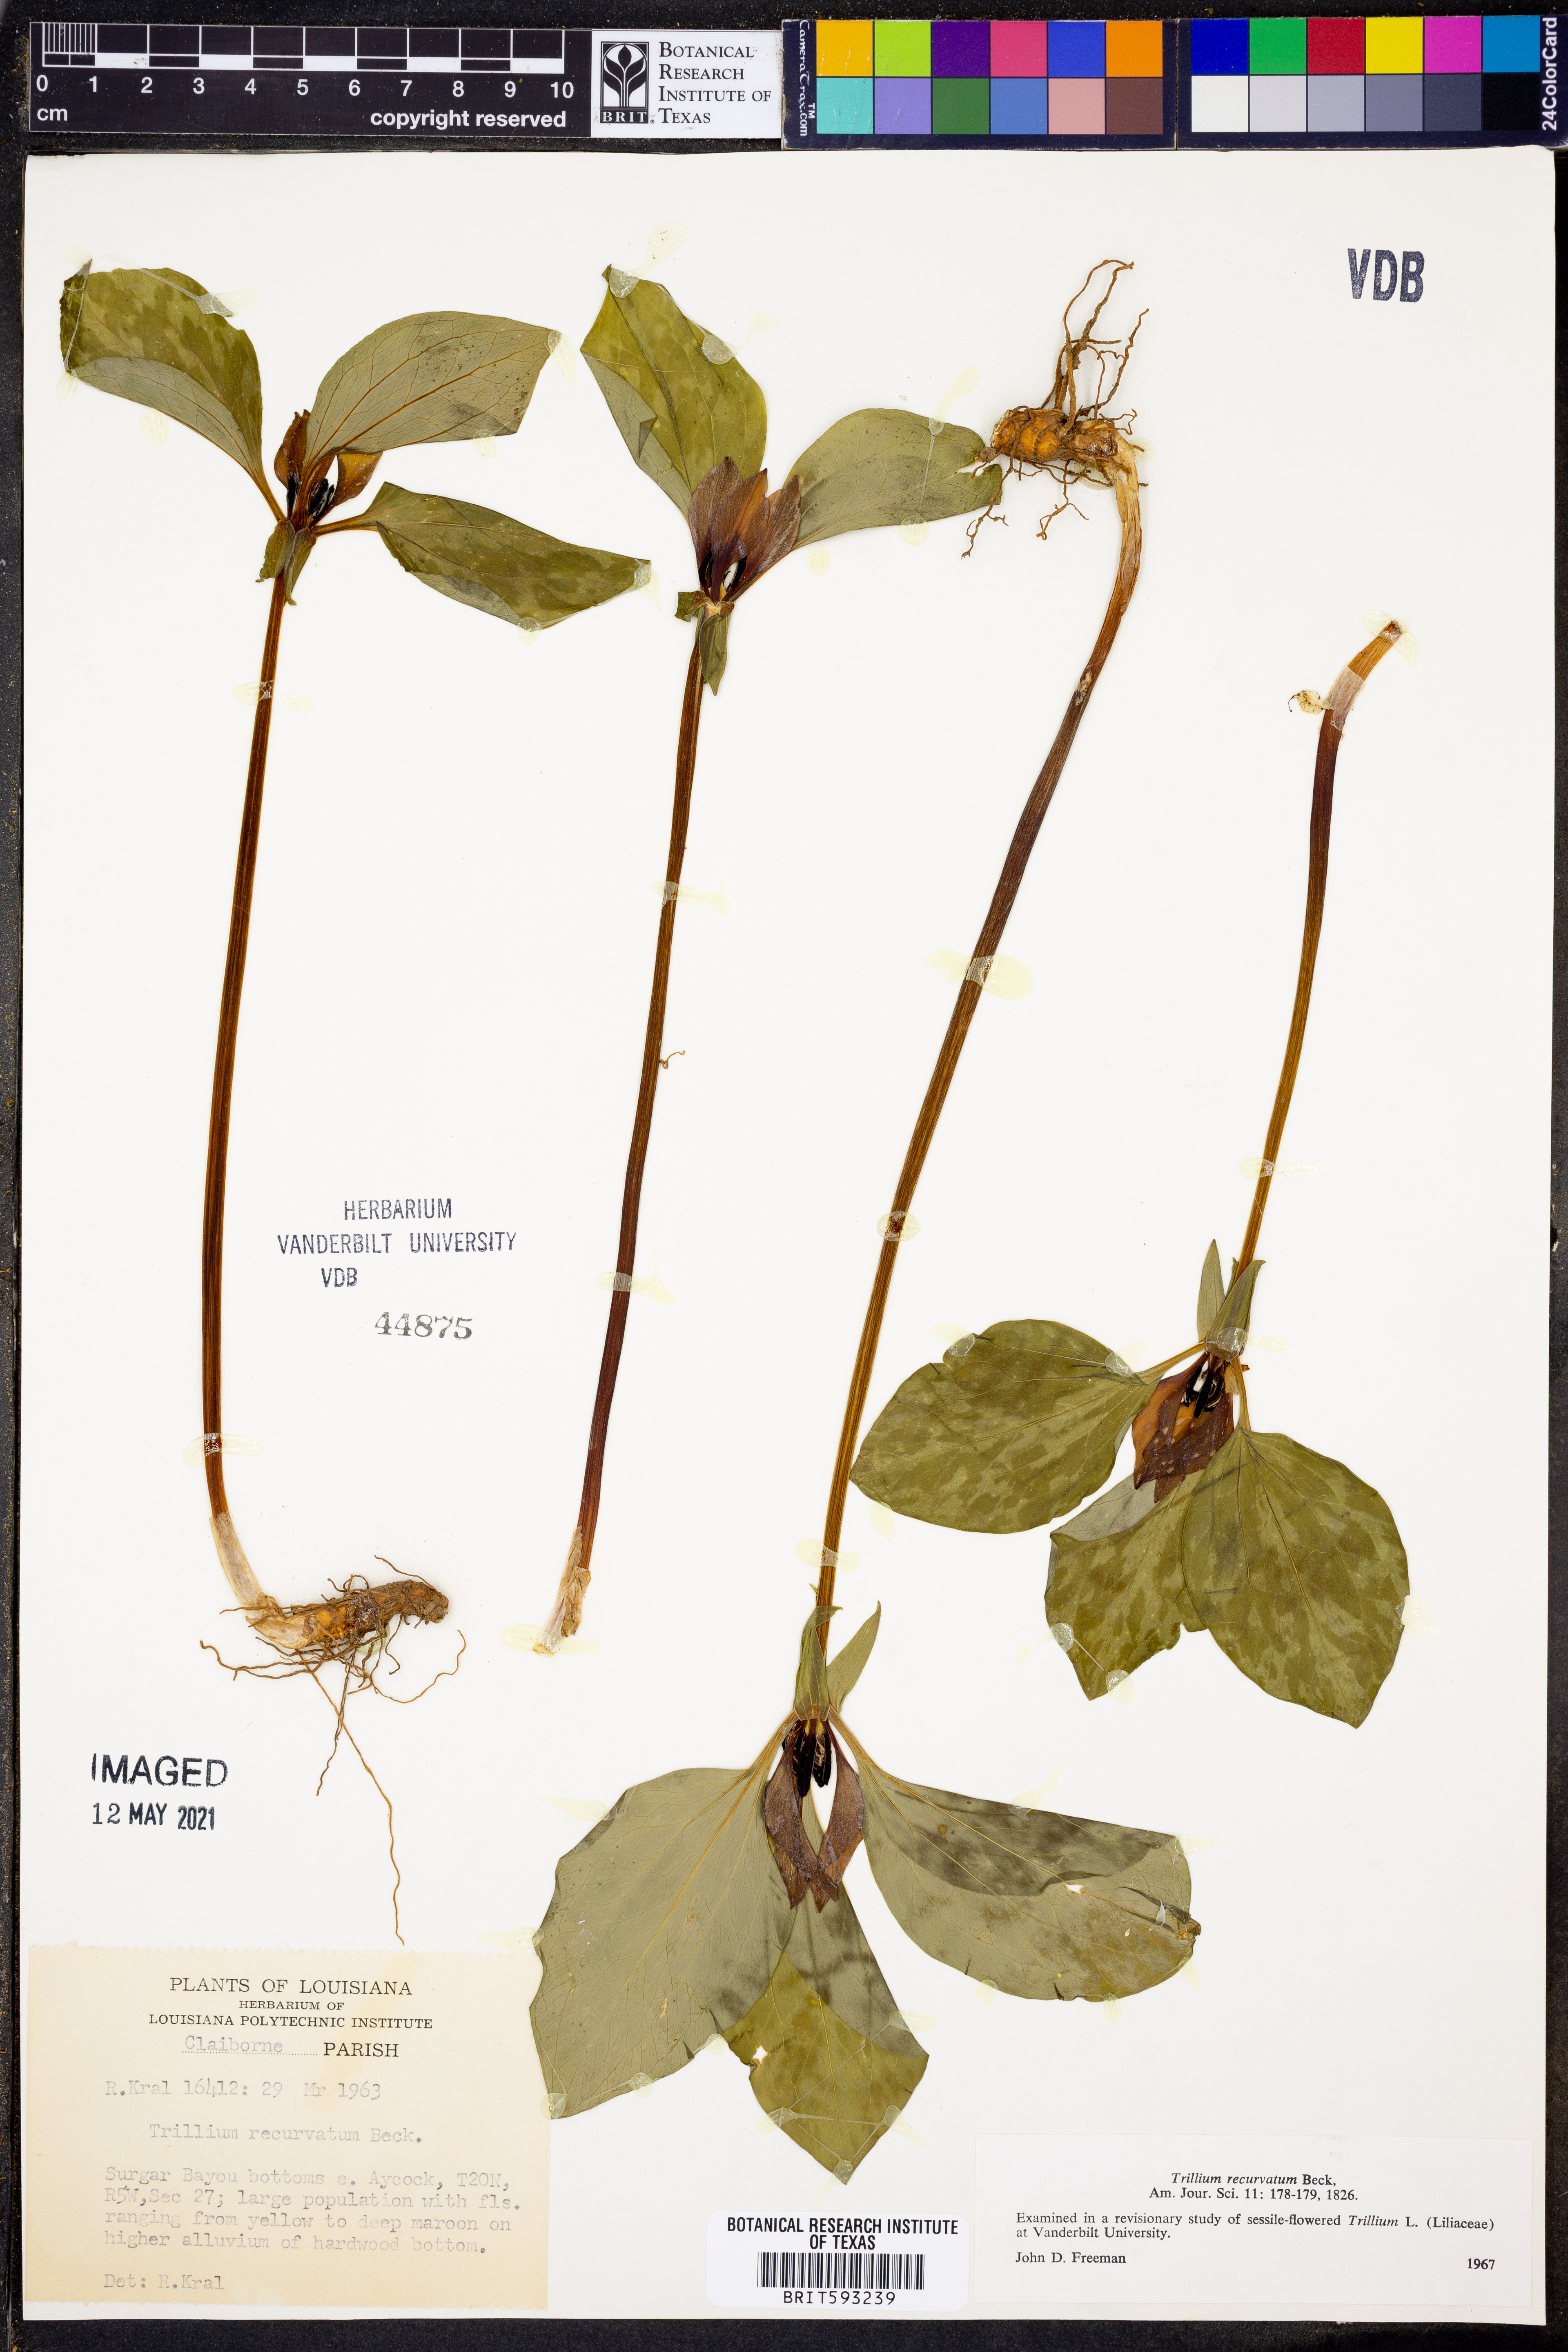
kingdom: Plantae
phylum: Tracheophyta
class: Liliopsida
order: Liliales
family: Melanthiaceae
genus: Trillium
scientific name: Trillium recurvatum
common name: Bloody butcher
